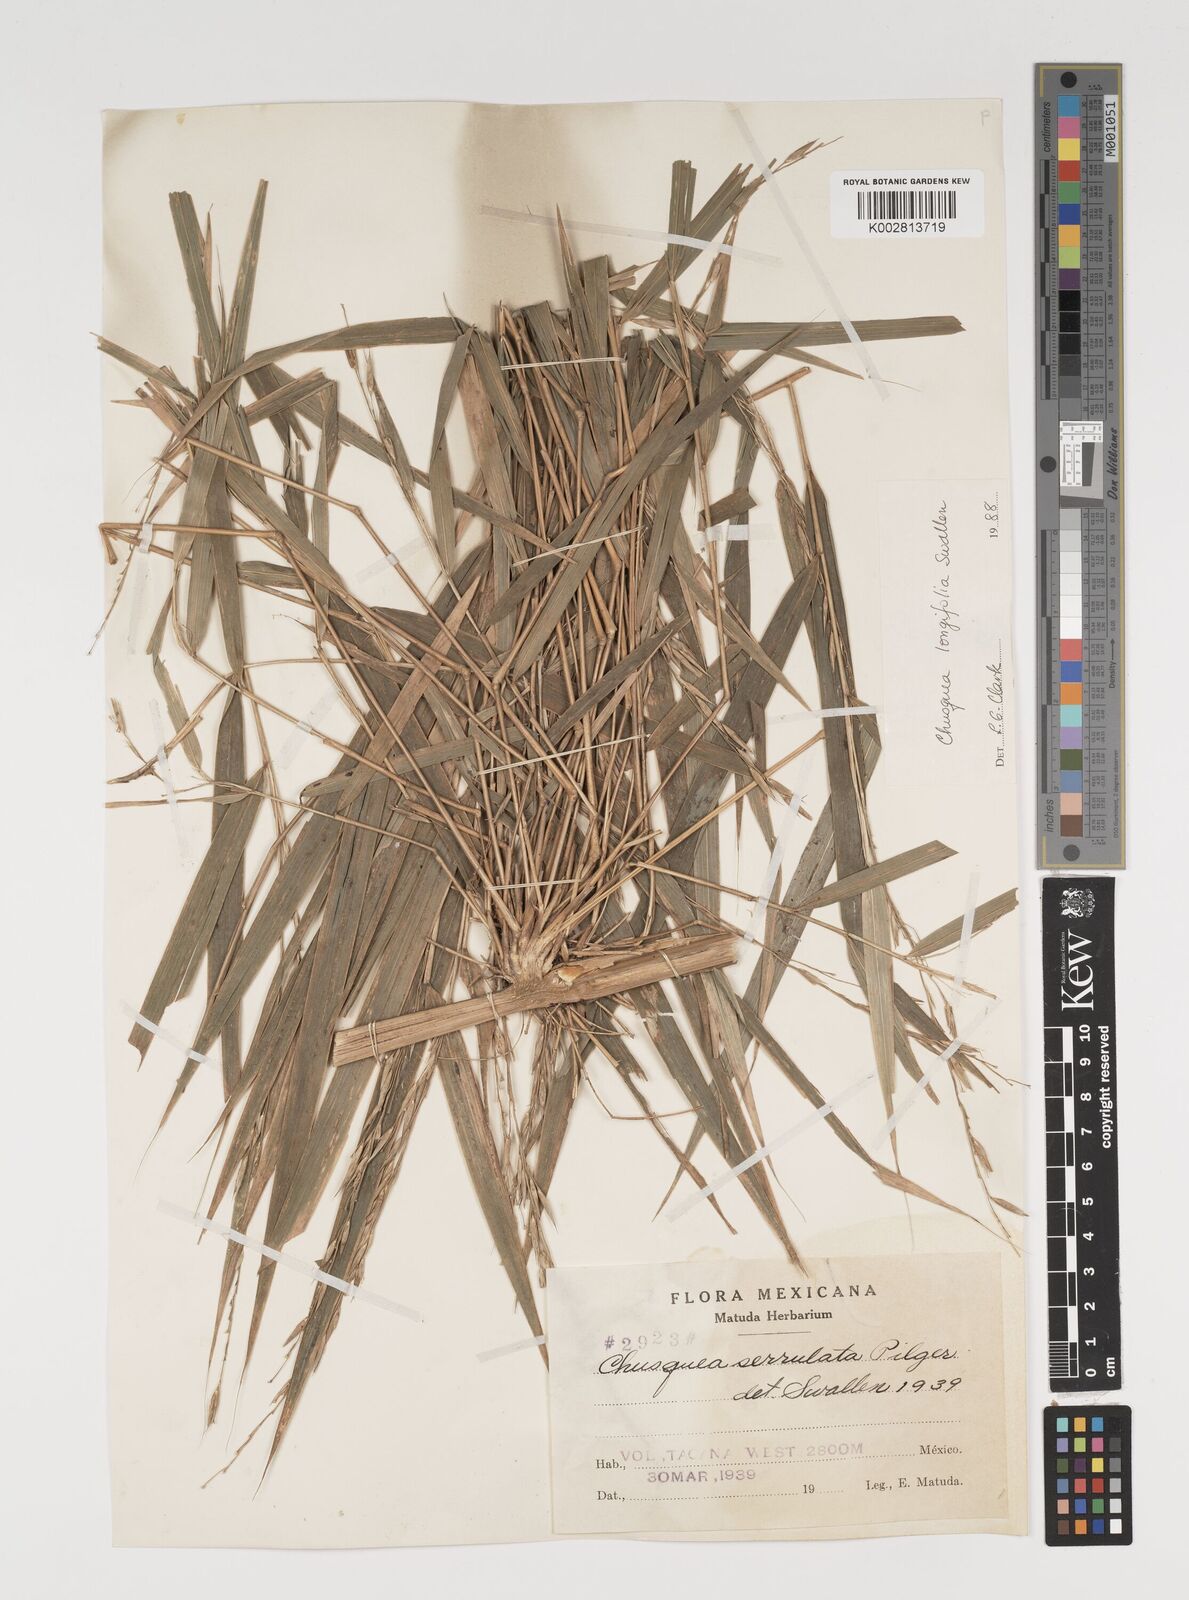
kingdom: Plantae
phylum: Tracheophyta
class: Liliopsida
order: Poales
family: Poaceae
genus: Chusquea
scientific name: Chusquea longifolia
